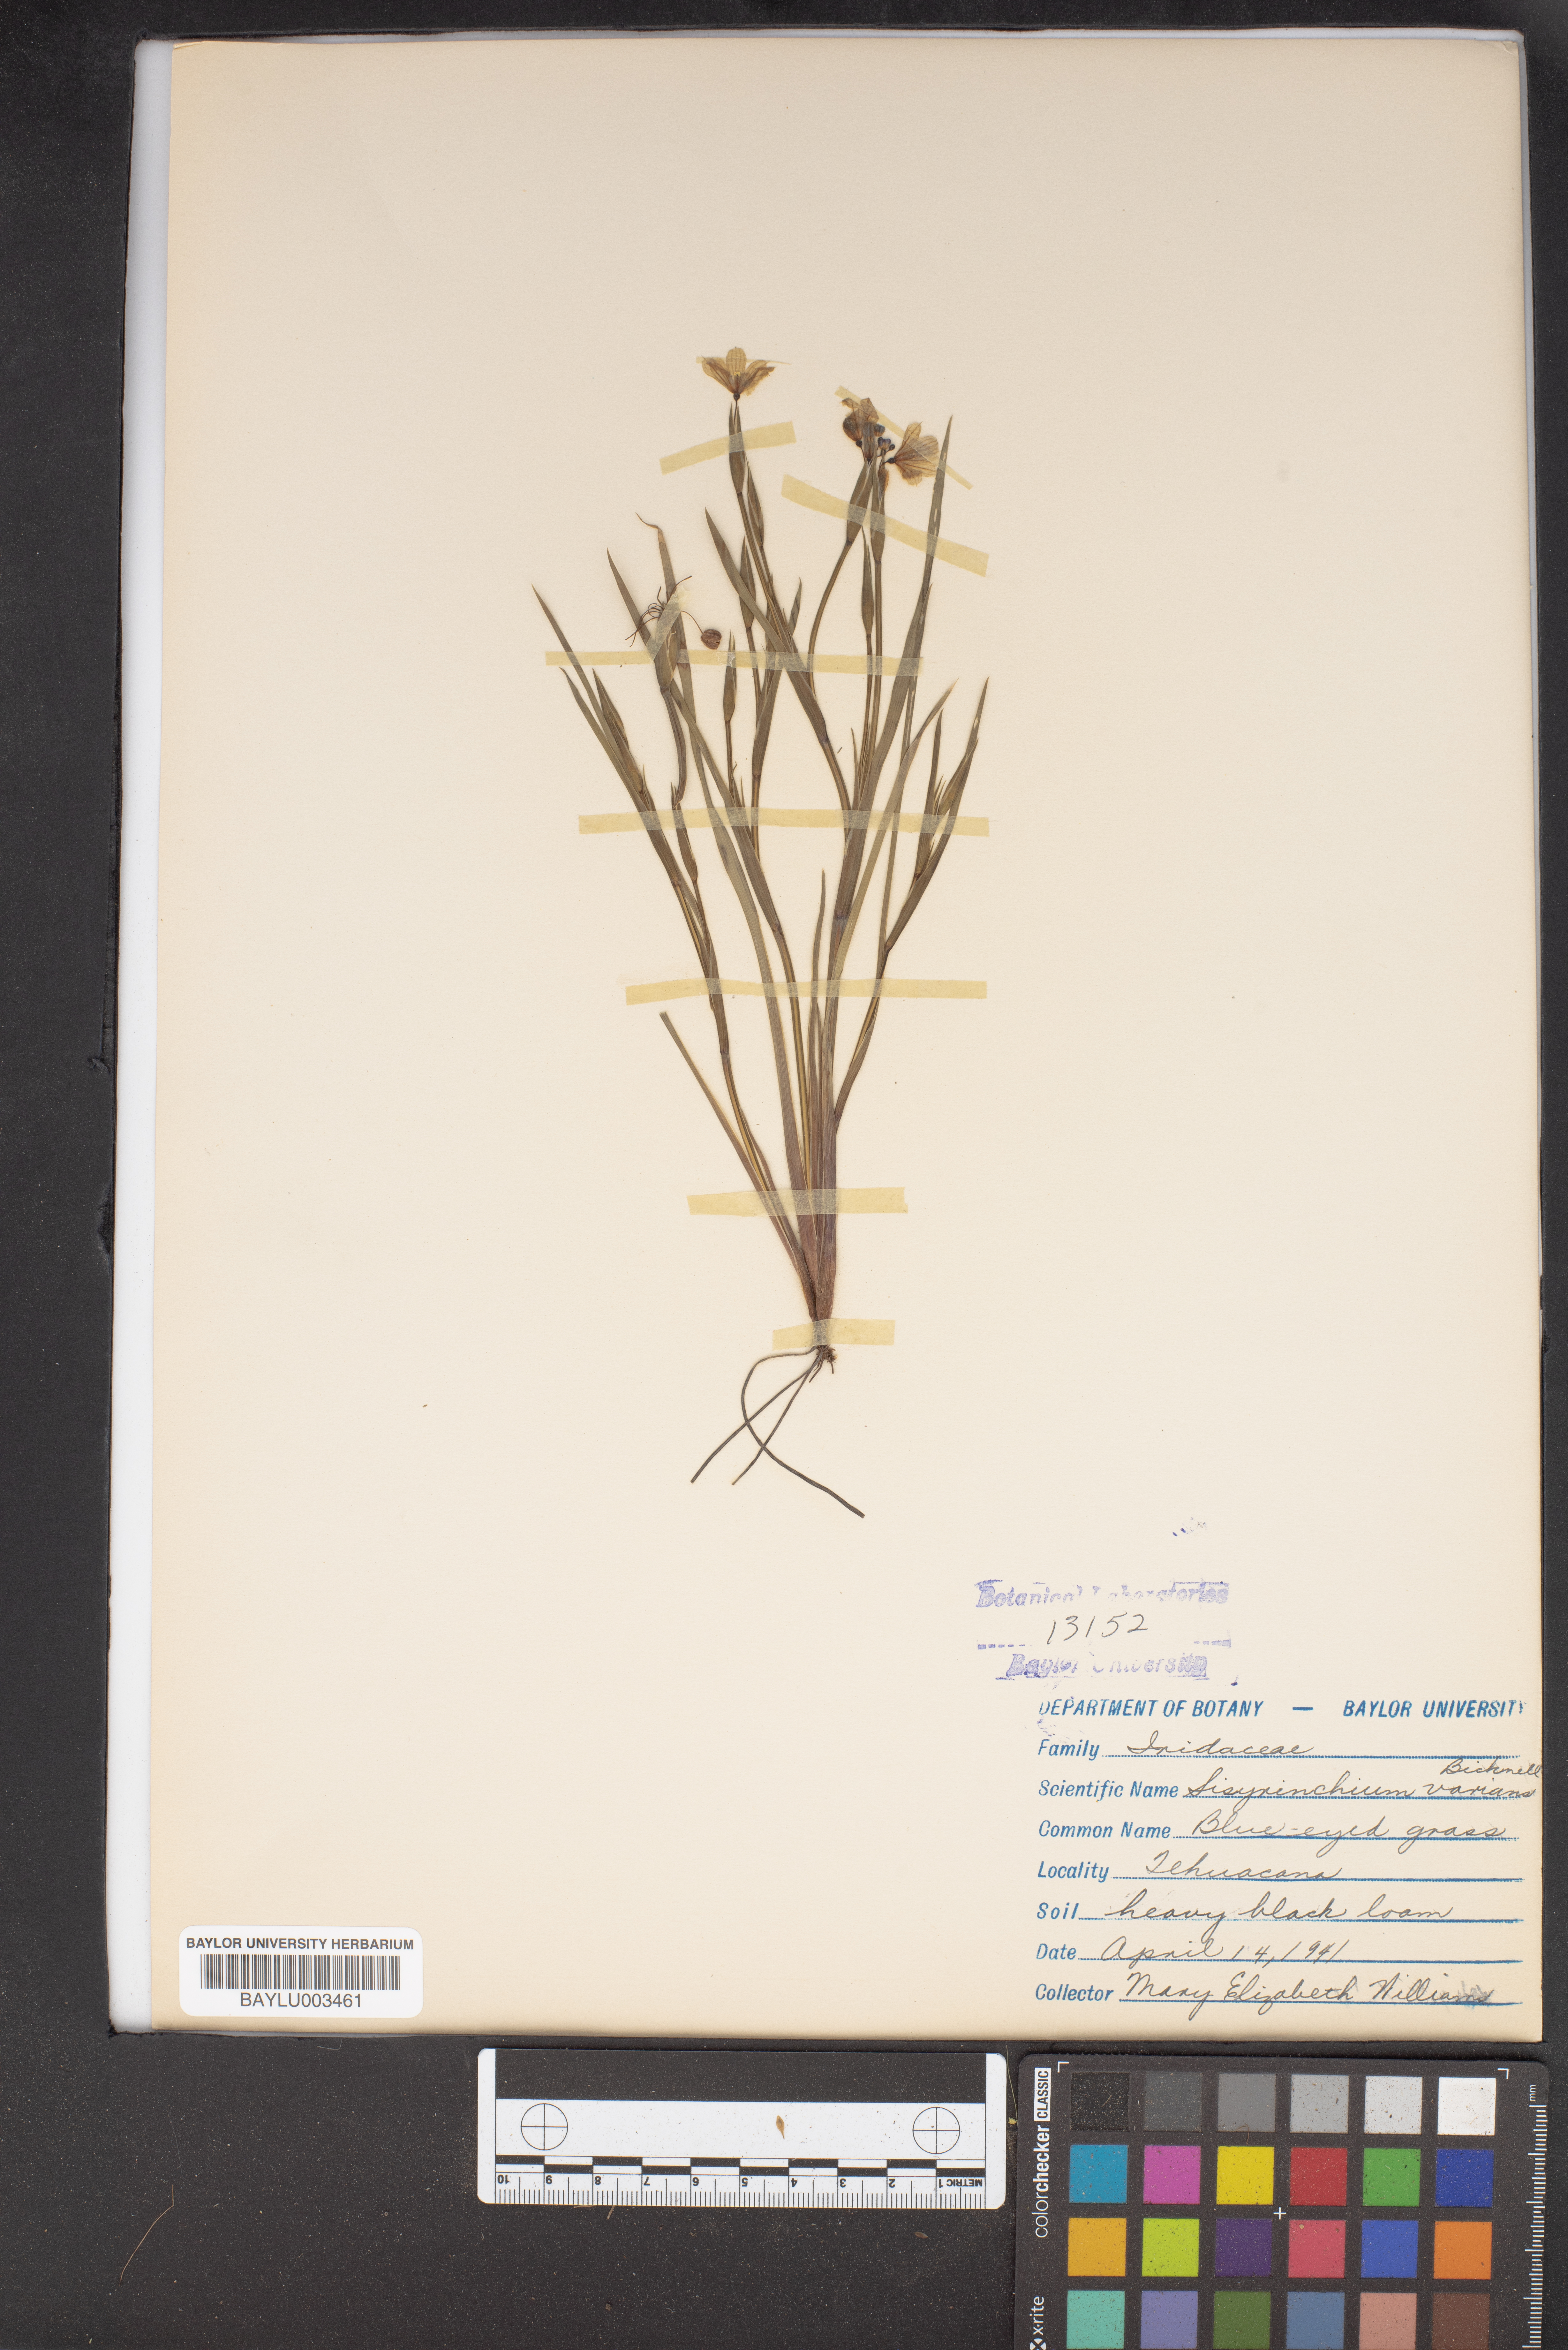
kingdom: Plantae
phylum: Tracheophyta
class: Liliopsida
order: Asparagales
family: Iridaceae
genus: Sisyrinchium
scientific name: Sisyrinchium pruinosum
